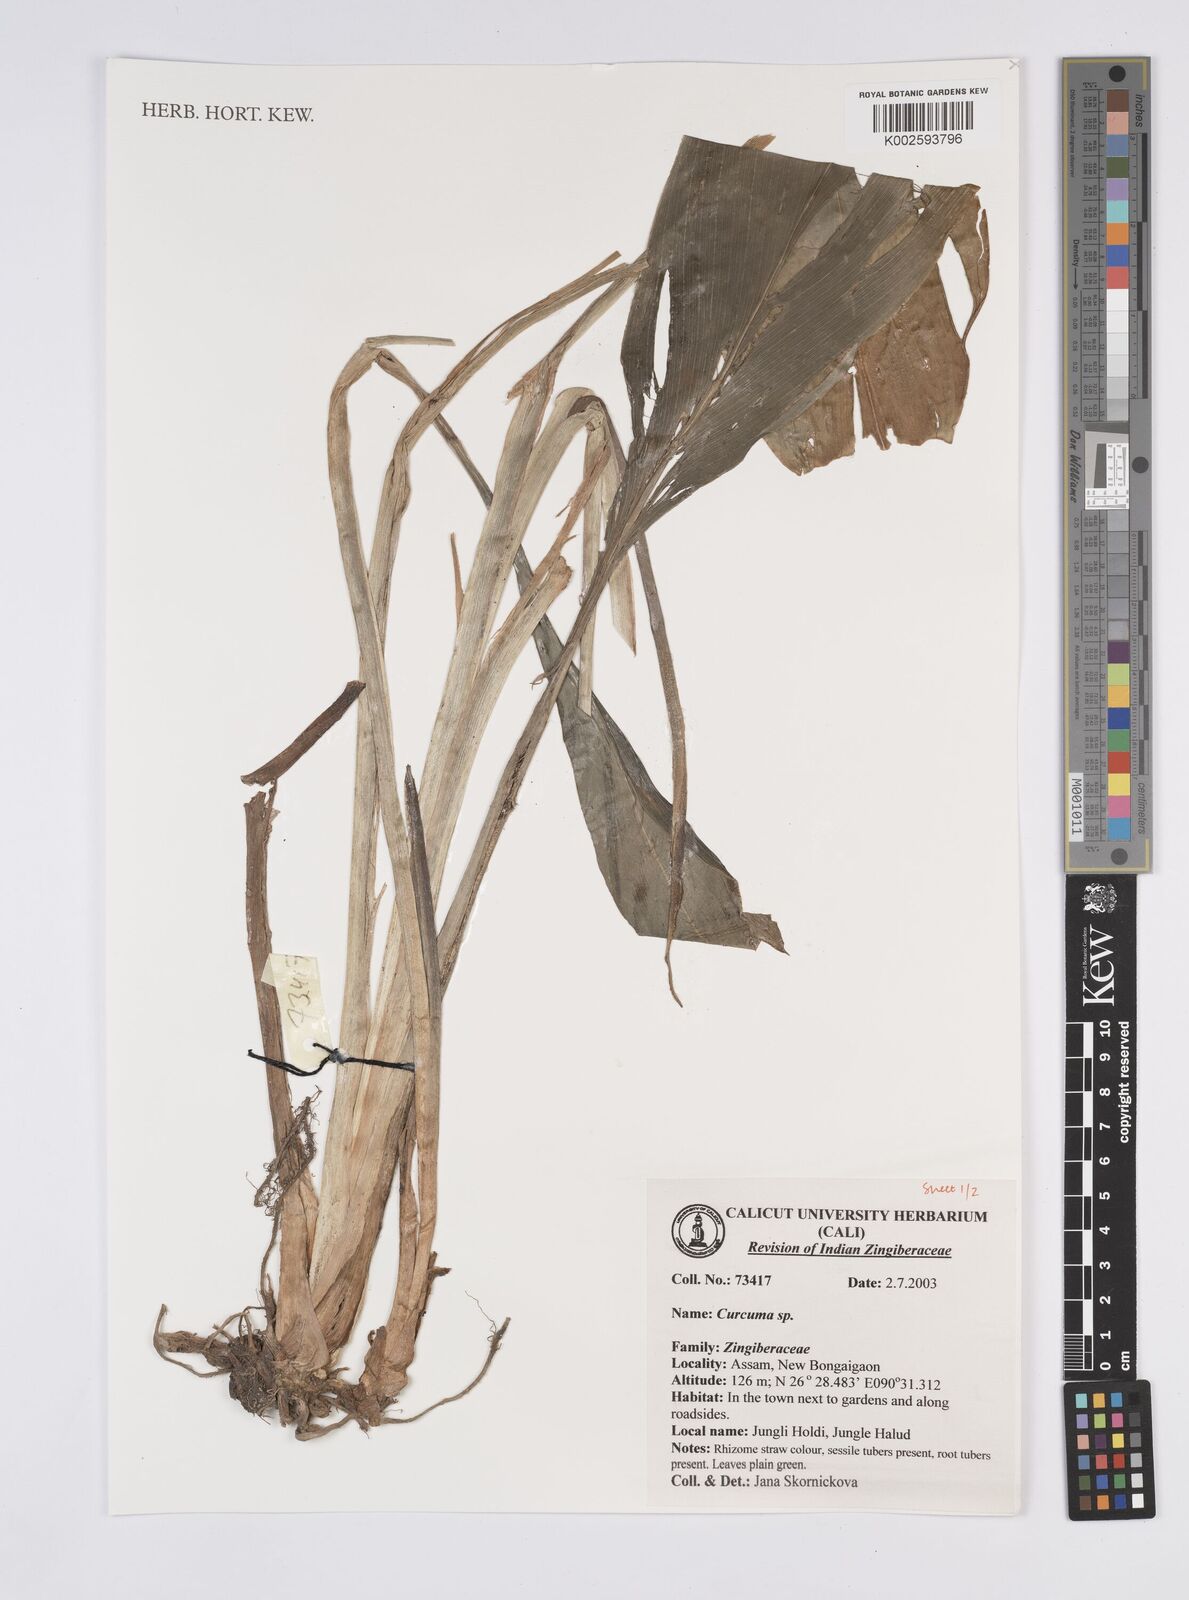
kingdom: Plantae
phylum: Tracheophyta
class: Liliopsida
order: Zingiberales
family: Zingiberaceae
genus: Curcuma
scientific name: Curcuma
